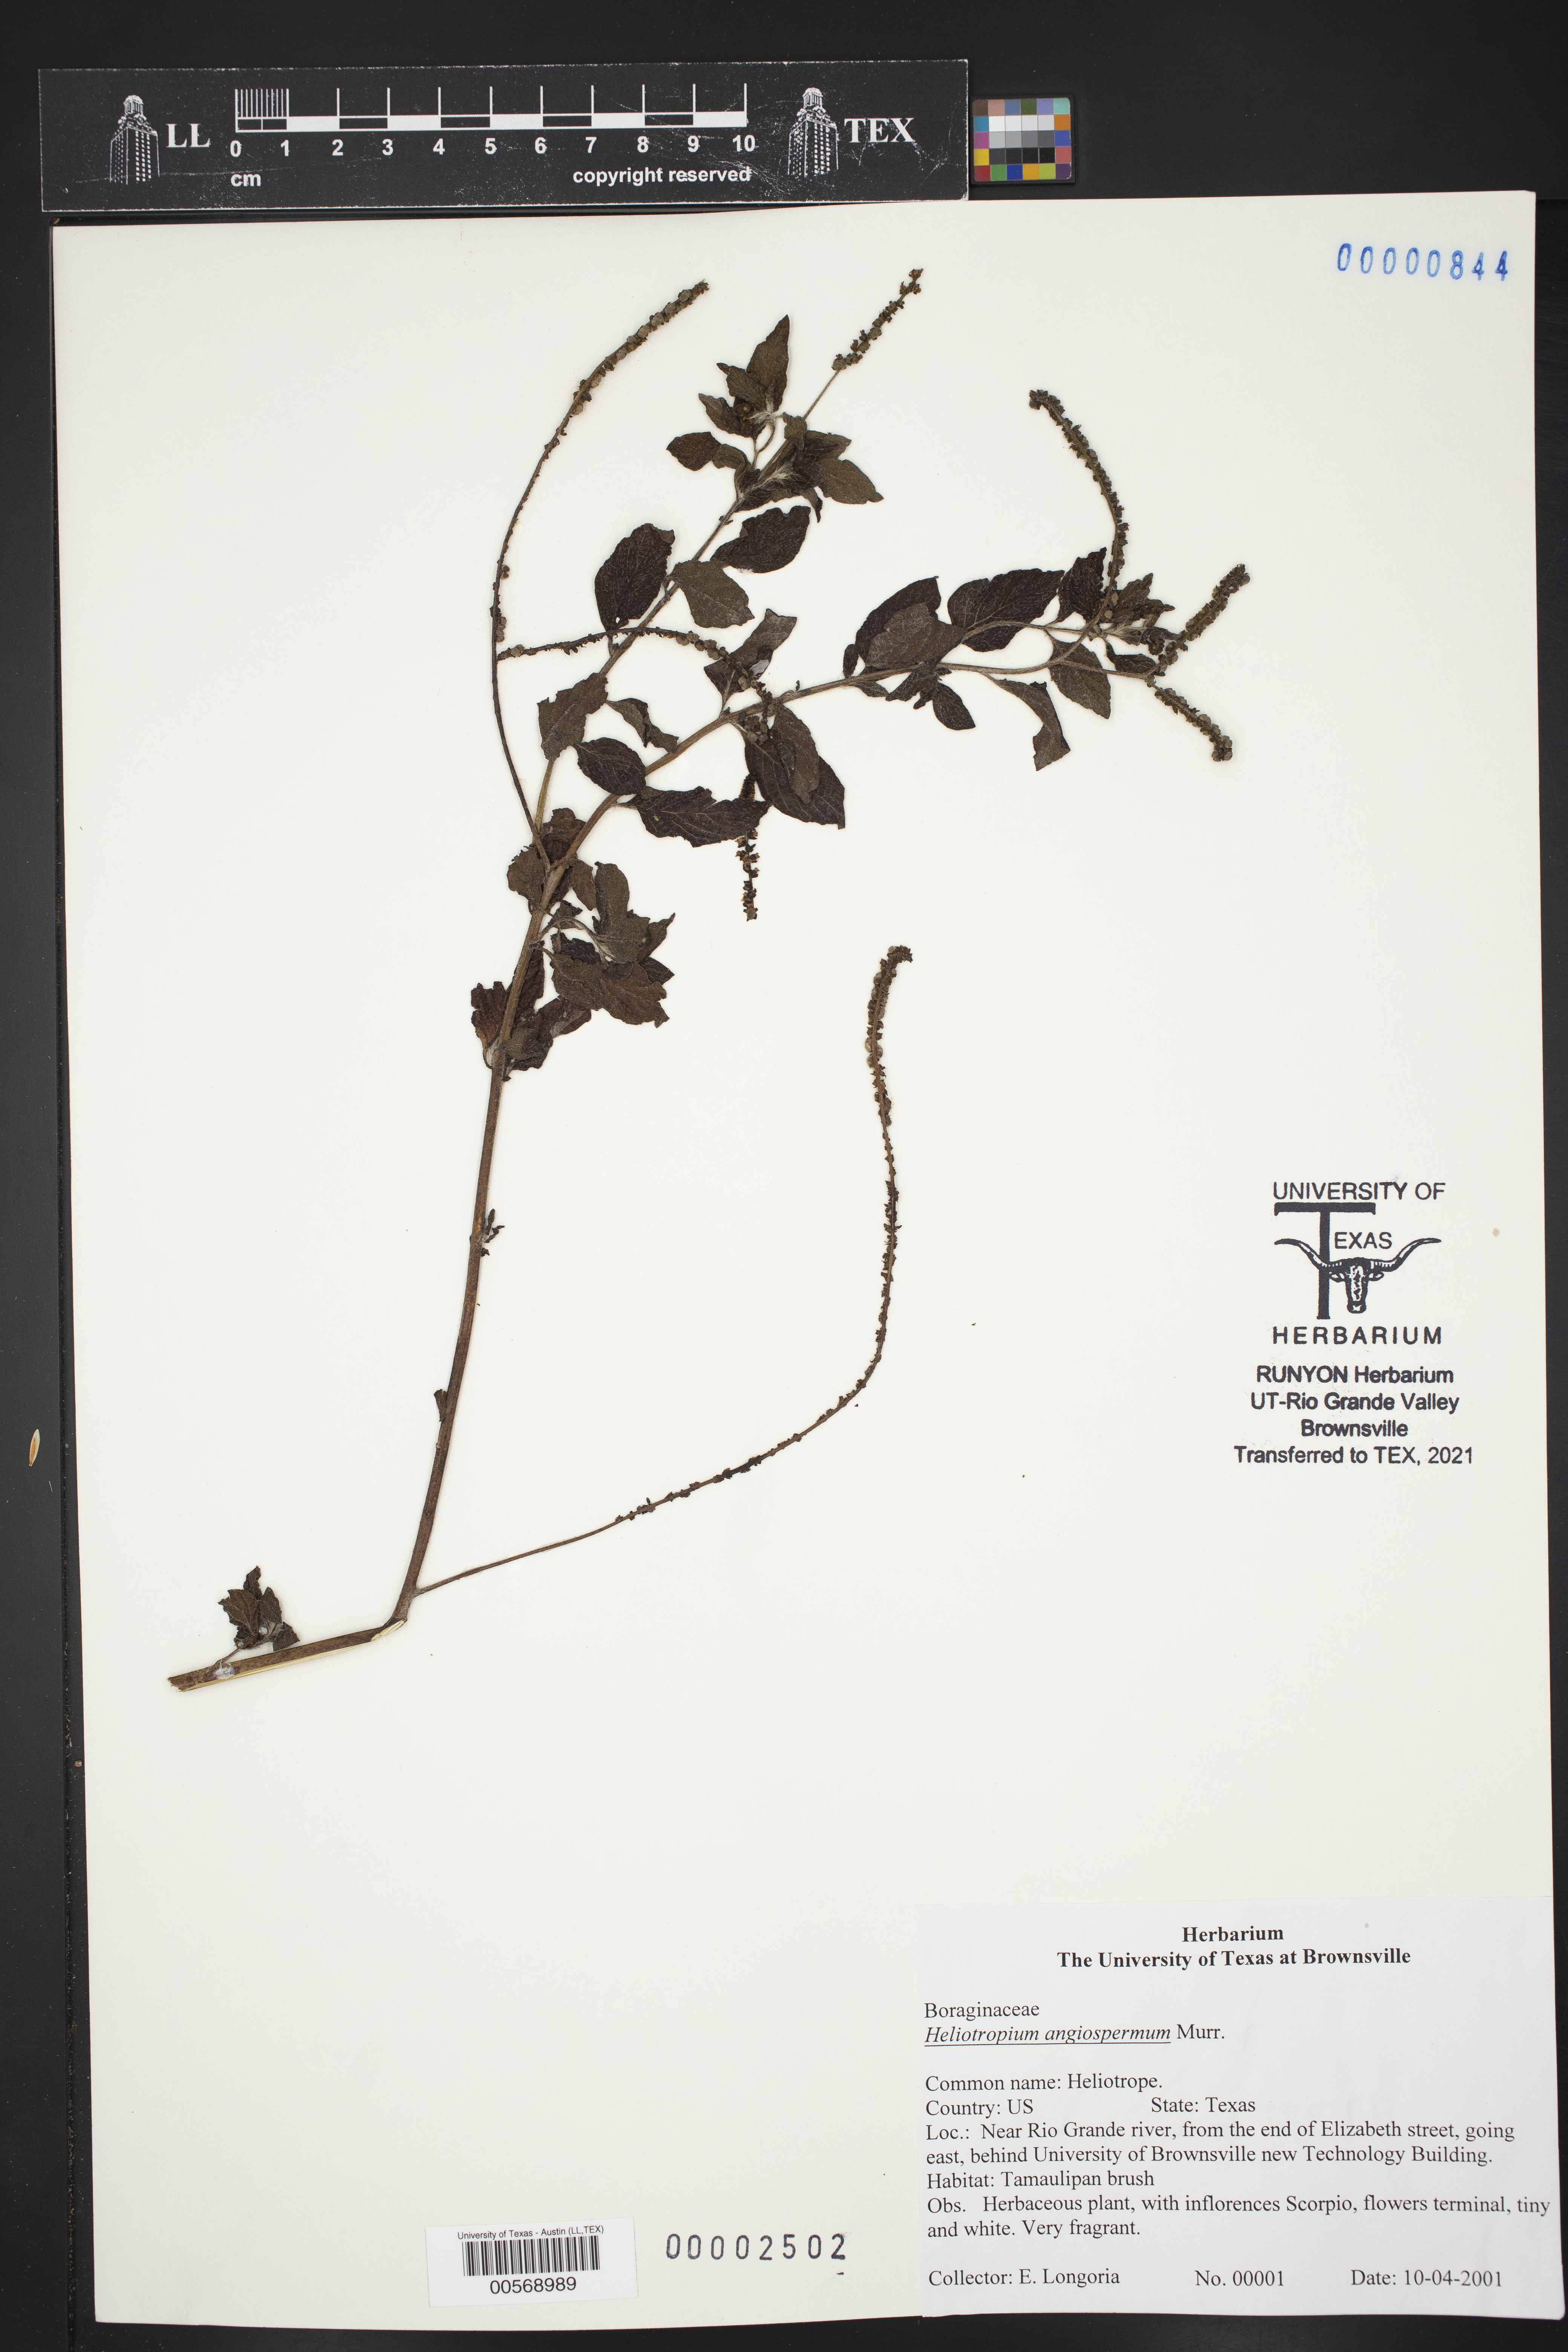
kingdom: Plantae
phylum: Tracheophyta
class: Magnoliopsida
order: Boraginales
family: Heliotropiaceae
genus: Heliotropium
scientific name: Heliotropium angiospermum
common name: Eye bright
